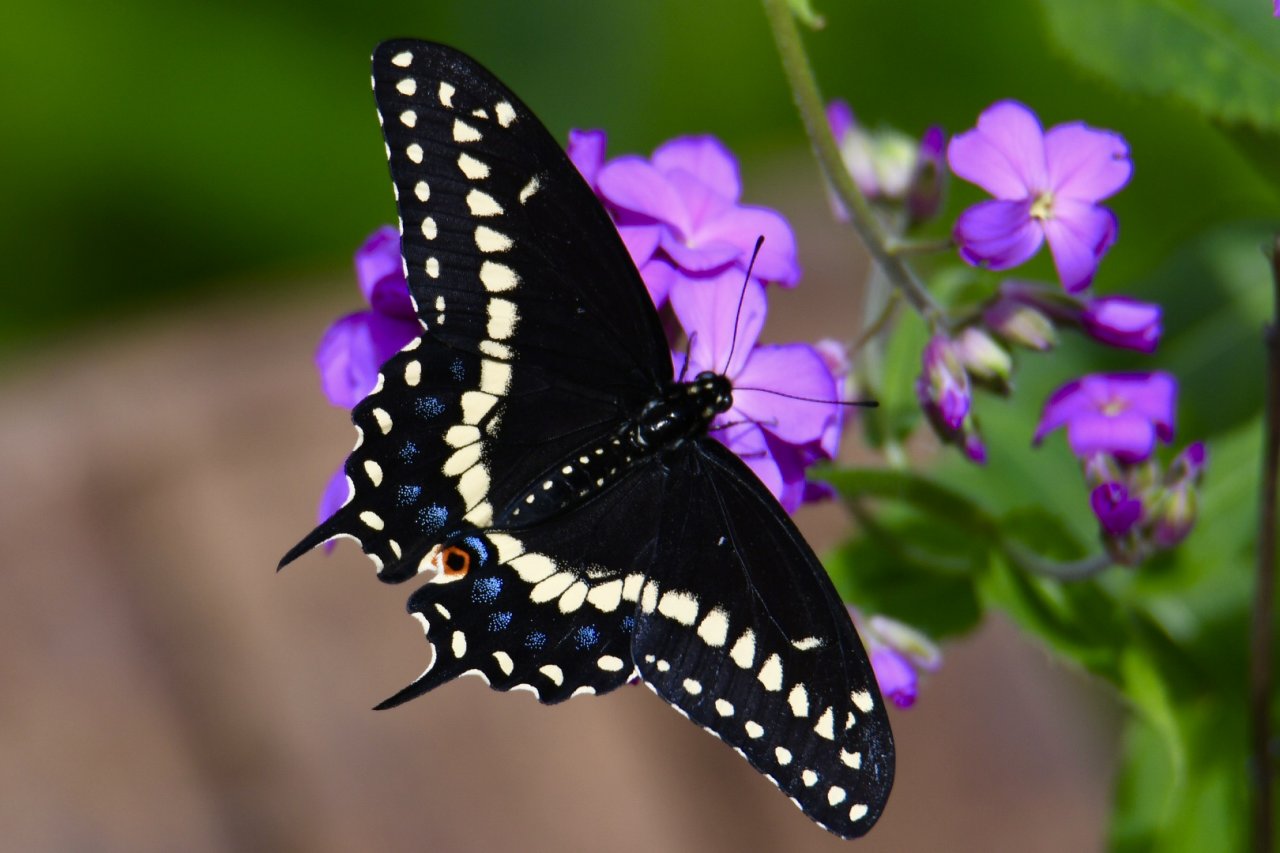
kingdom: Animalia
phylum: Arthropoda
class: Insecta
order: Lepidoptera
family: Papilionidae
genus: Papilio
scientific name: Papilio polyxenes
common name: Black Swallowtail
